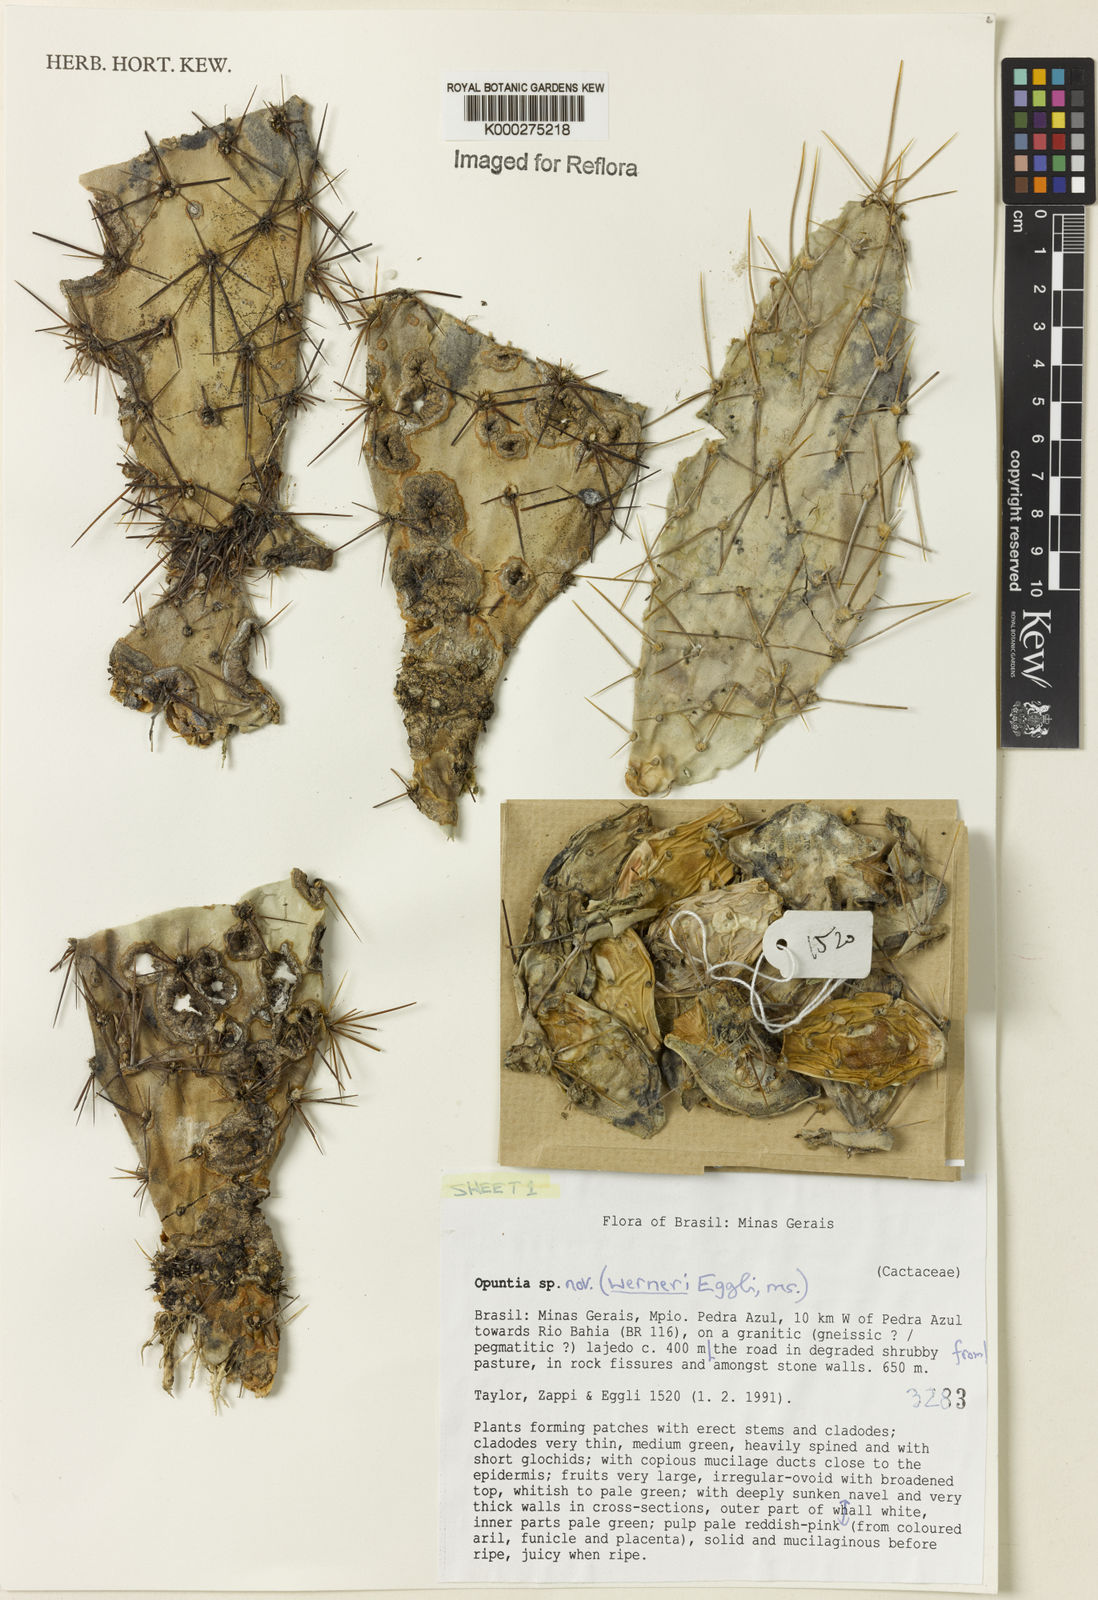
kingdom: Plantae
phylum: Tracheophyta
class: Magnoliopsida
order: Caryophyllales
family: Cactaceae
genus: Tacinga
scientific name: Tacinga werneri
